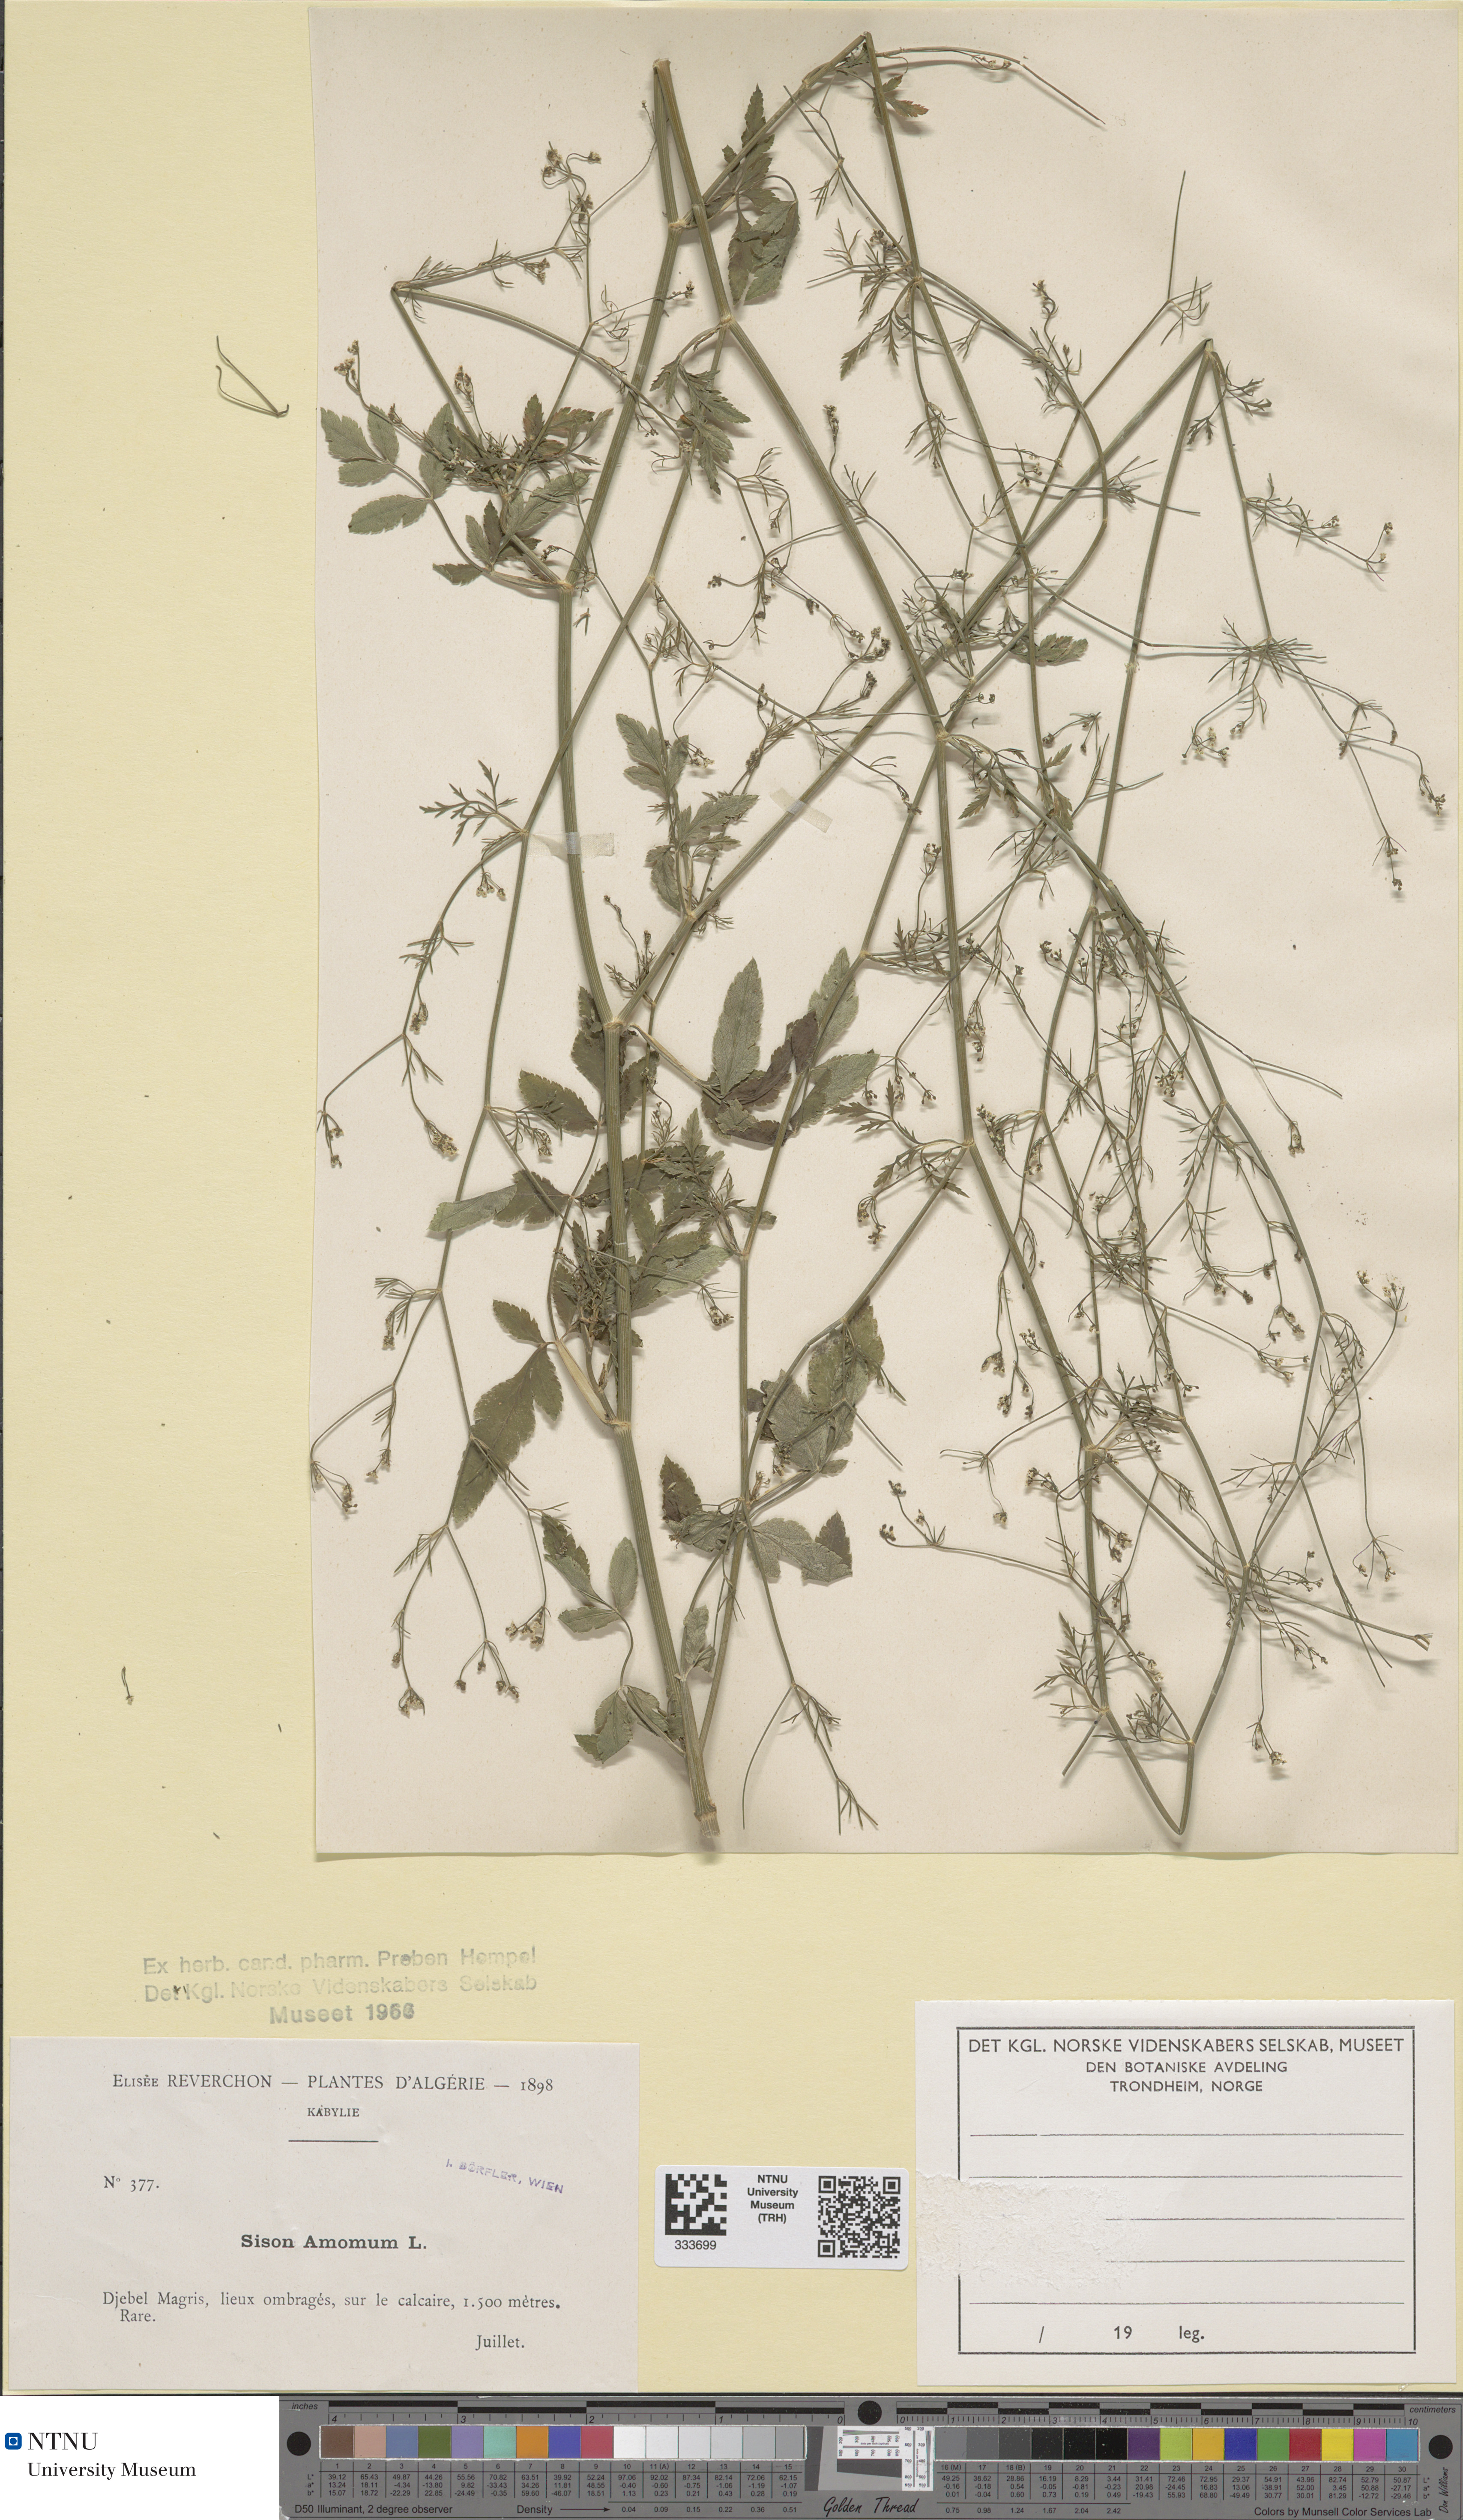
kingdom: Plantae
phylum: Tracheophyta
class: Magnoliopsida
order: Apiales
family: Apiaceae
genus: Sison
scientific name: Sison amomum
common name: Stone-parsley
